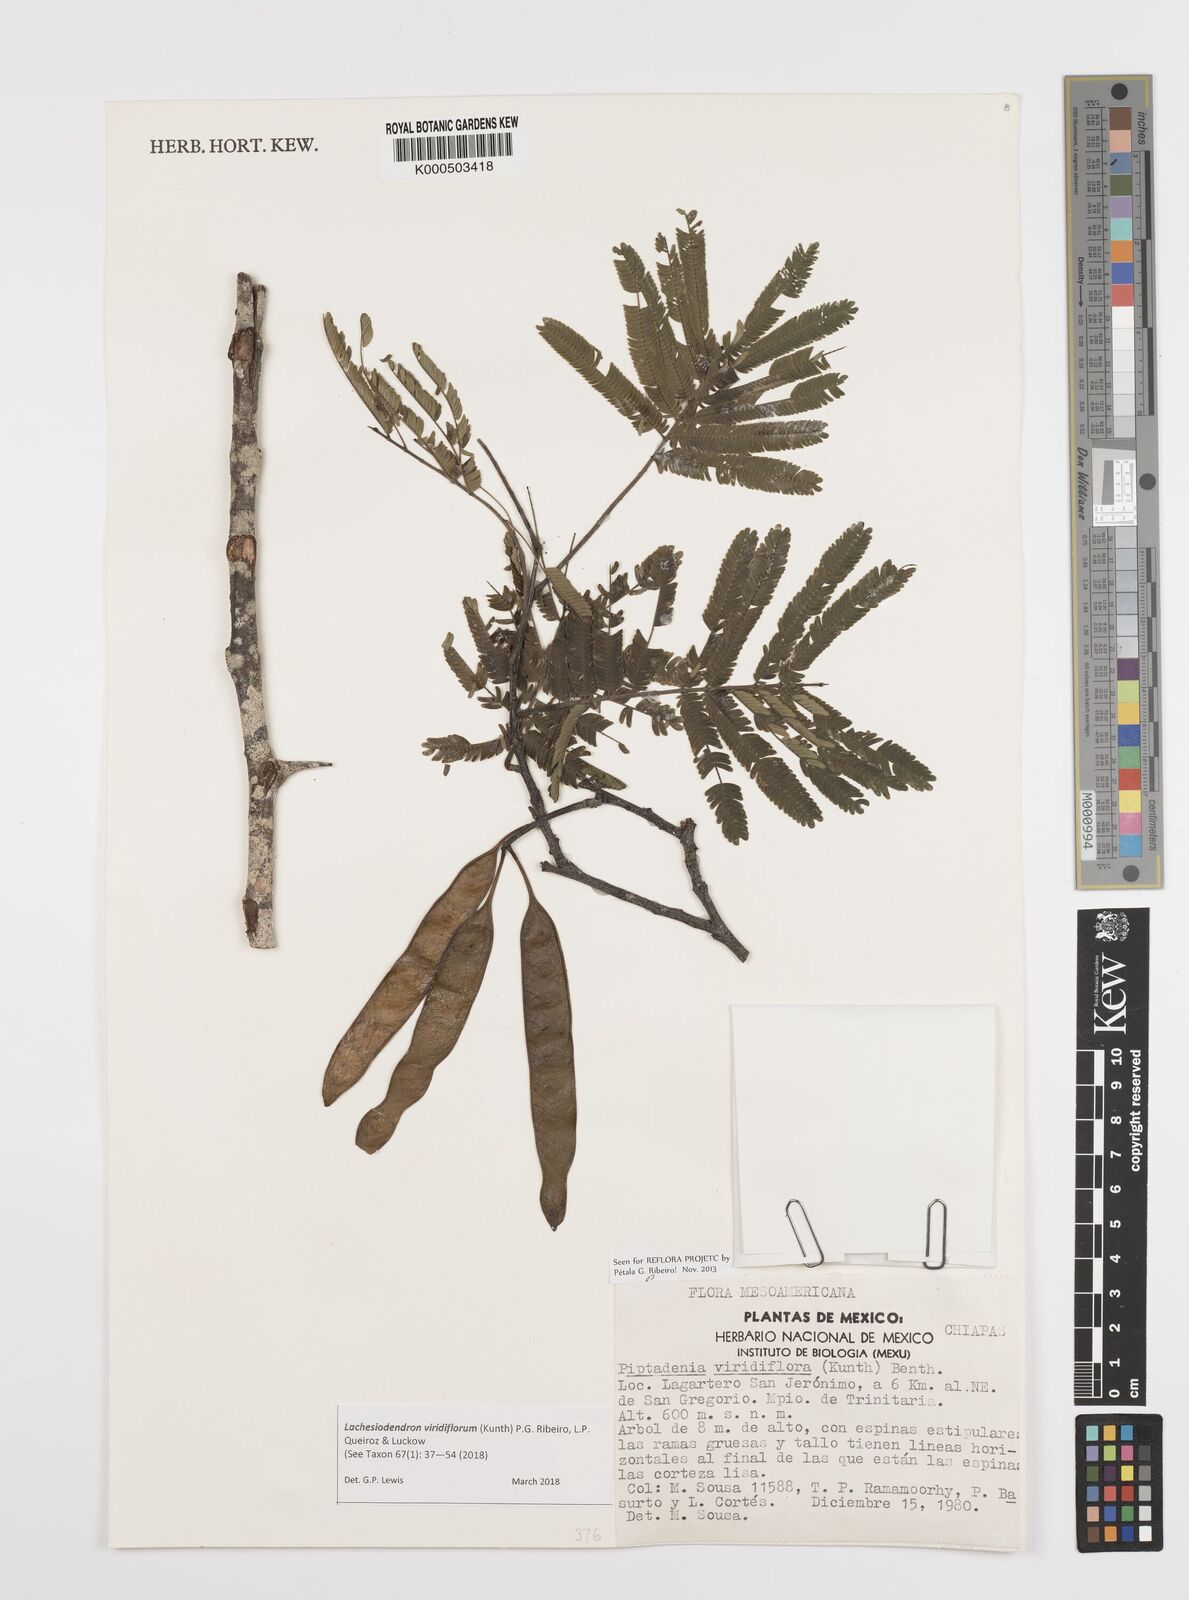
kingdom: Plantae
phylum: Tracheophyta
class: Magnoliopsida
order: Fabales
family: Fabaceae
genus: Lachesiodendron
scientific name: Lachesiodendron viridiflorum
